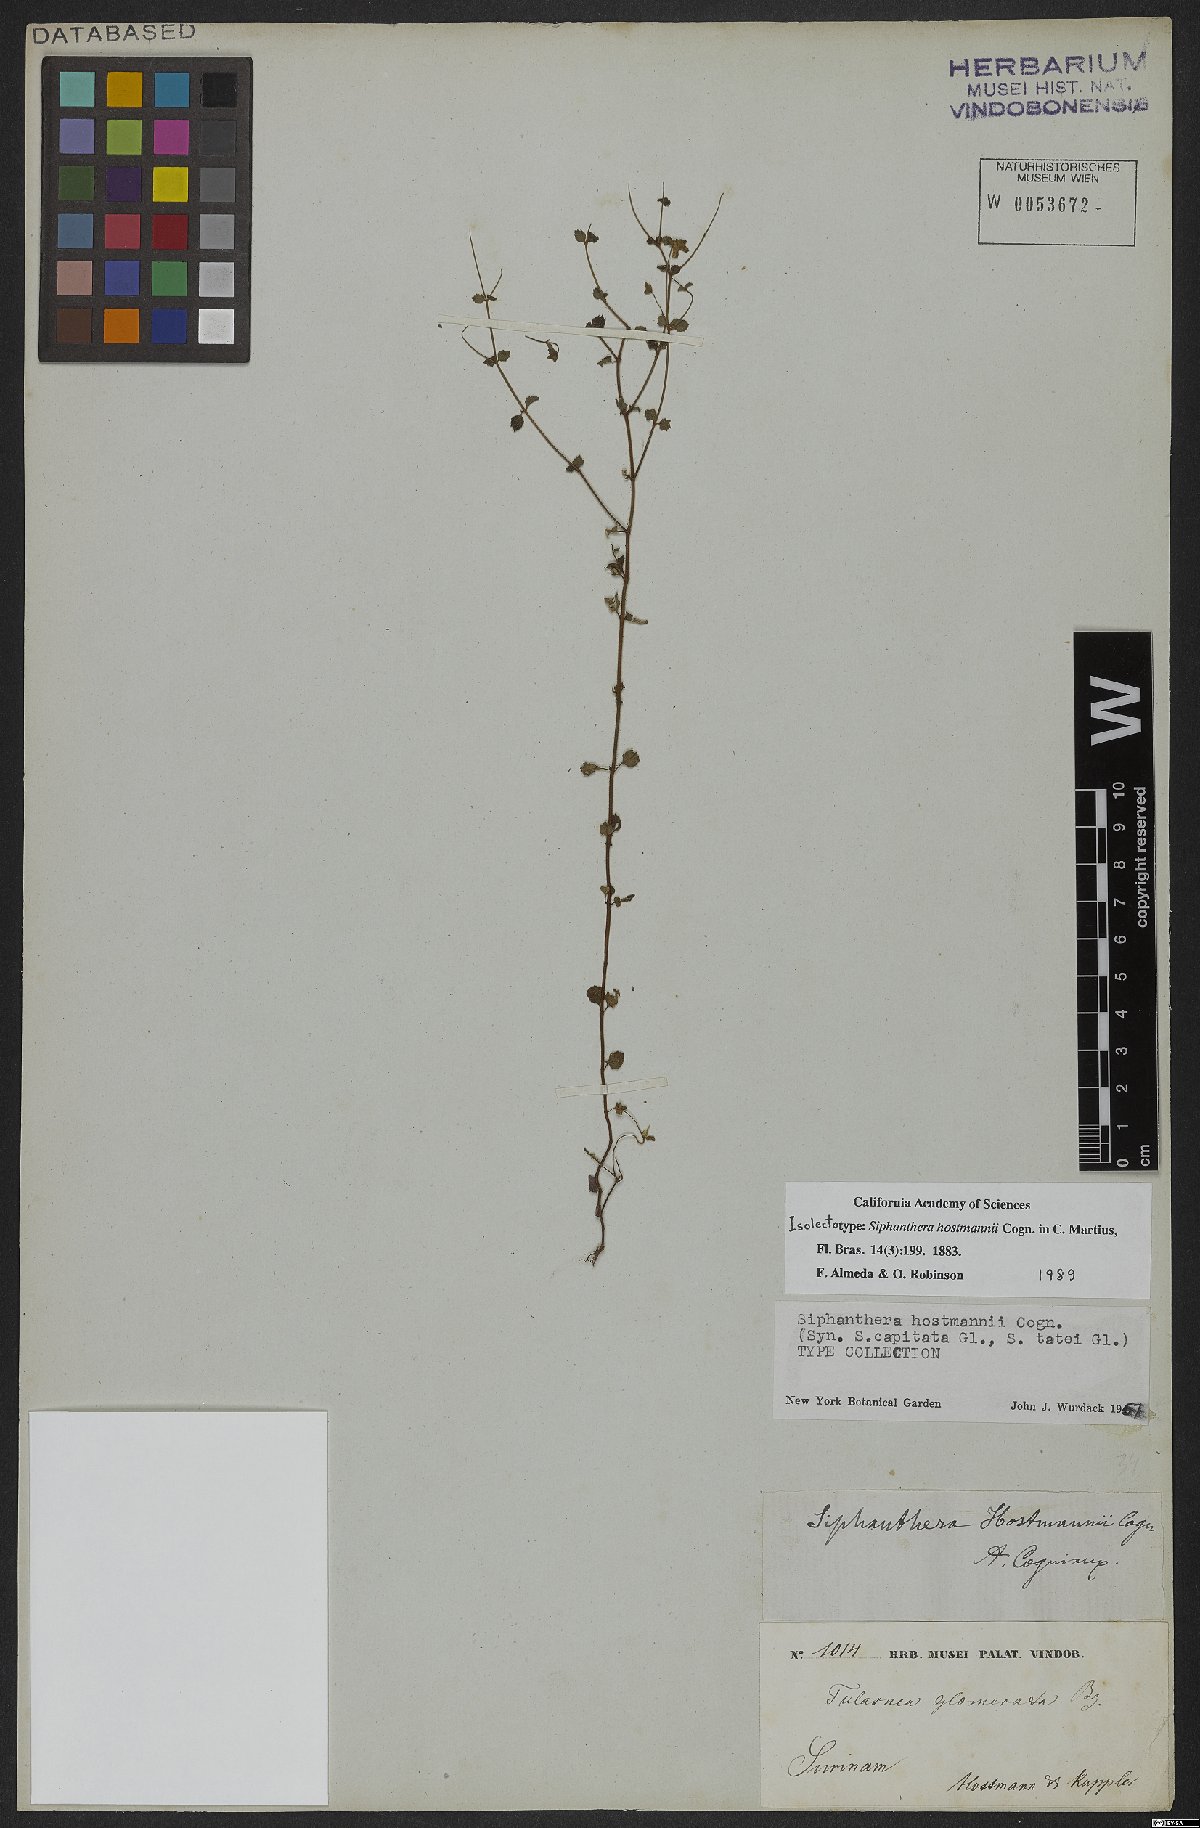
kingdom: Plantae
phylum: Tracheophyta
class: Magnoliopsida
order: Myrtales
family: Melastomataceae
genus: Siphanthera
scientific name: Siphanthera hostmannii
